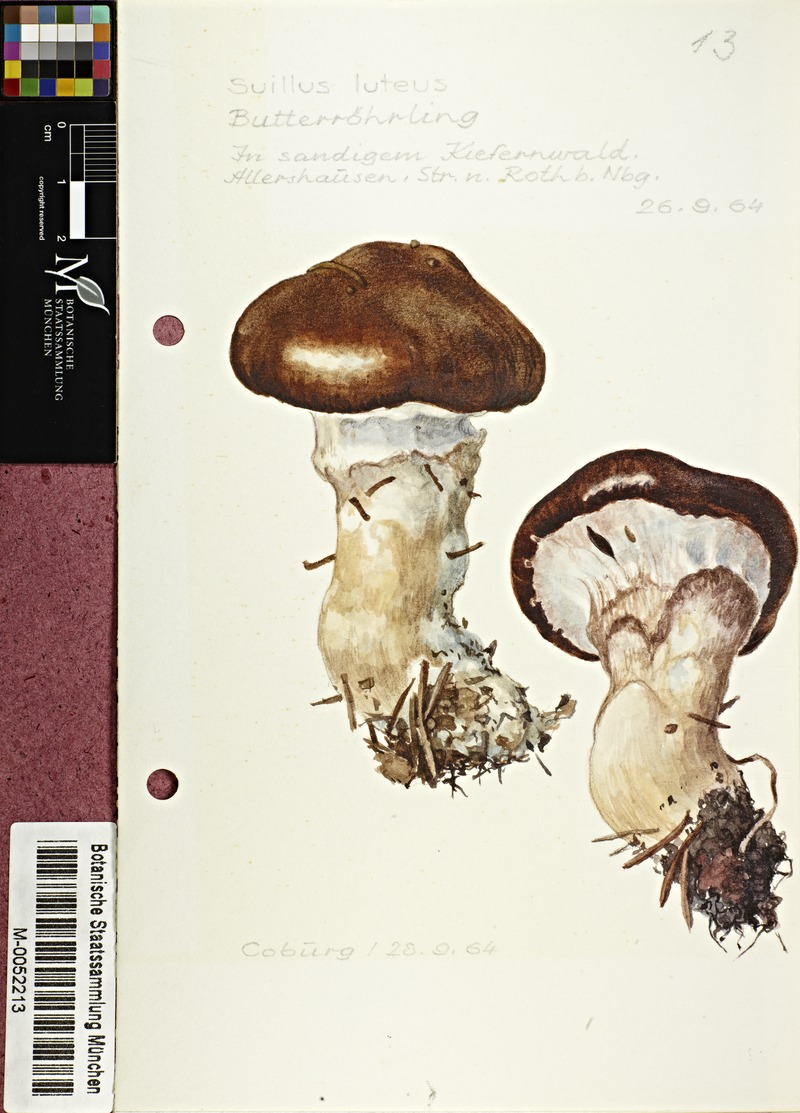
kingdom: Fungi
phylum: Basidiomycota
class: Agaricomycetes
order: Boletales
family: Suillaceae
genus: Suillus
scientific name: Suillus luteus
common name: Slippery jack
